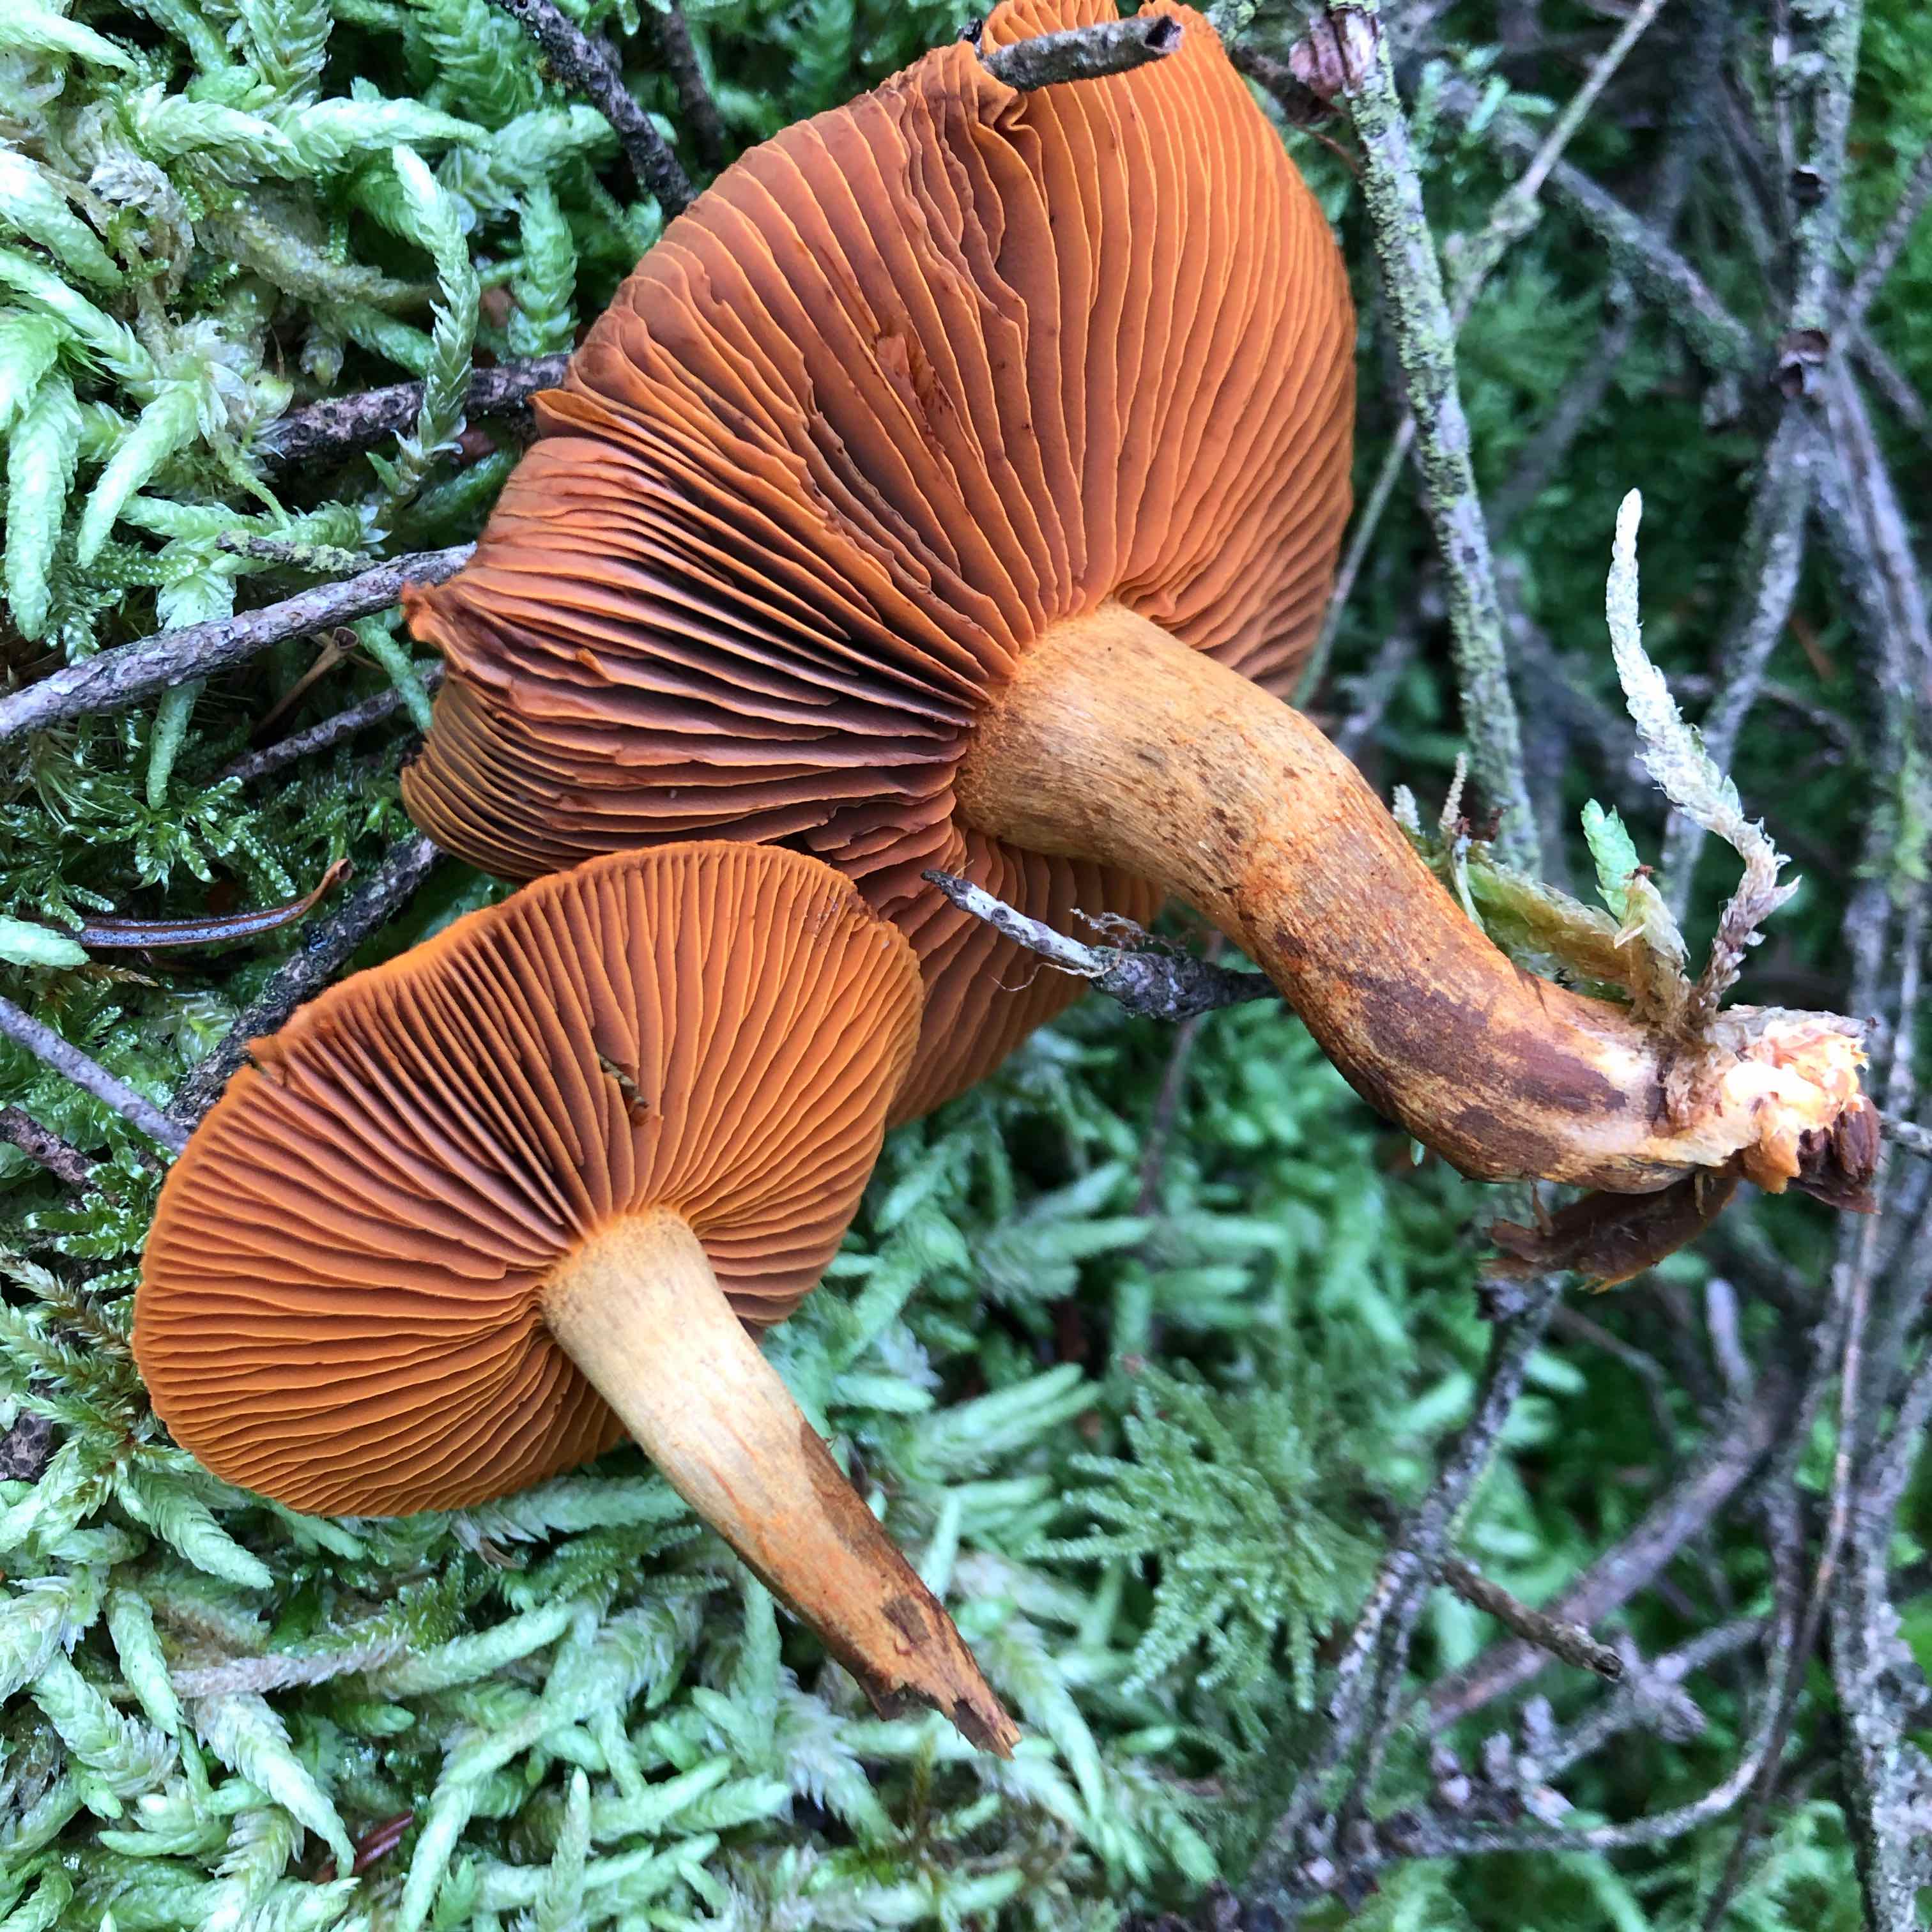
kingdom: Fungi
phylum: Basidiomycota
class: Agaricomycetes
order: Agaricales
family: Cortinariaceae
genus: Cortinarius
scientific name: Cortinarius malicorius
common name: grønkødet slørhat
